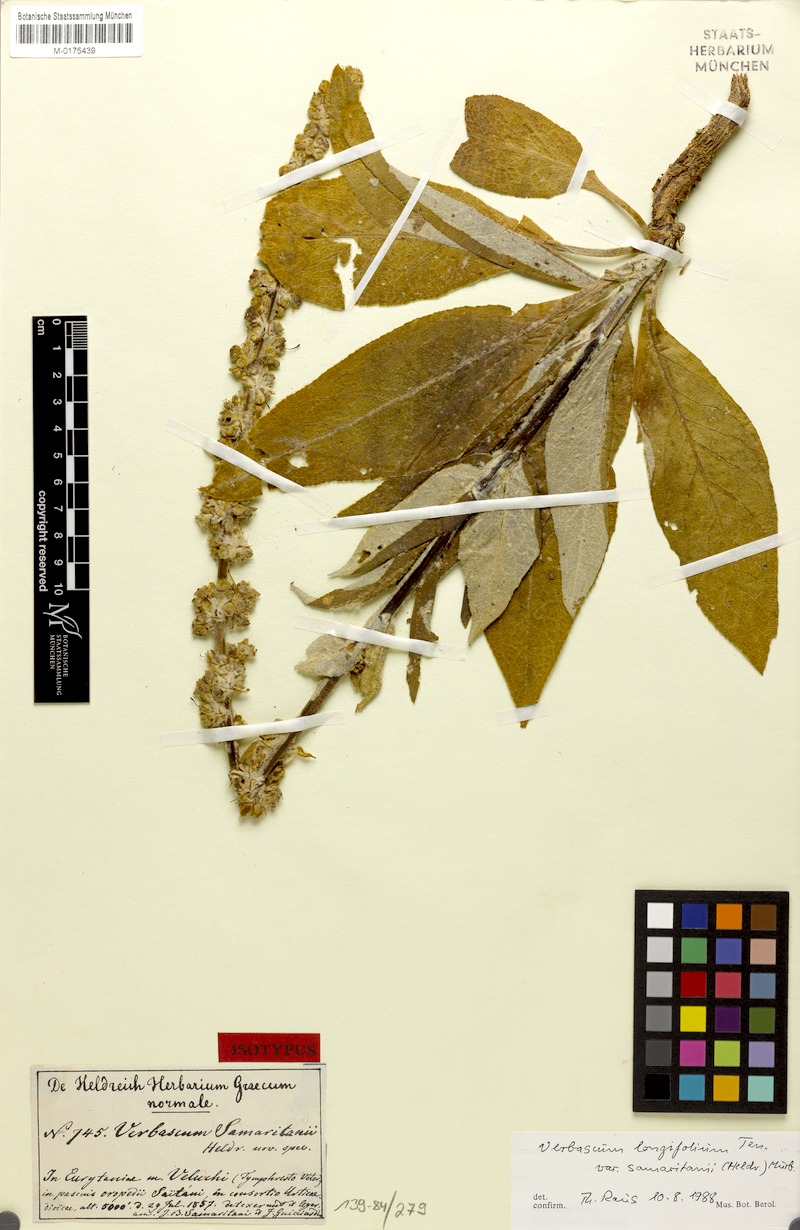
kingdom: Plantae
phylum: Tracheophyta
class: Magnoliopsida
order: Lamiales
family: Scrophulariaceae
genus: Verbascum
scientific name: Verbascum longifolium
